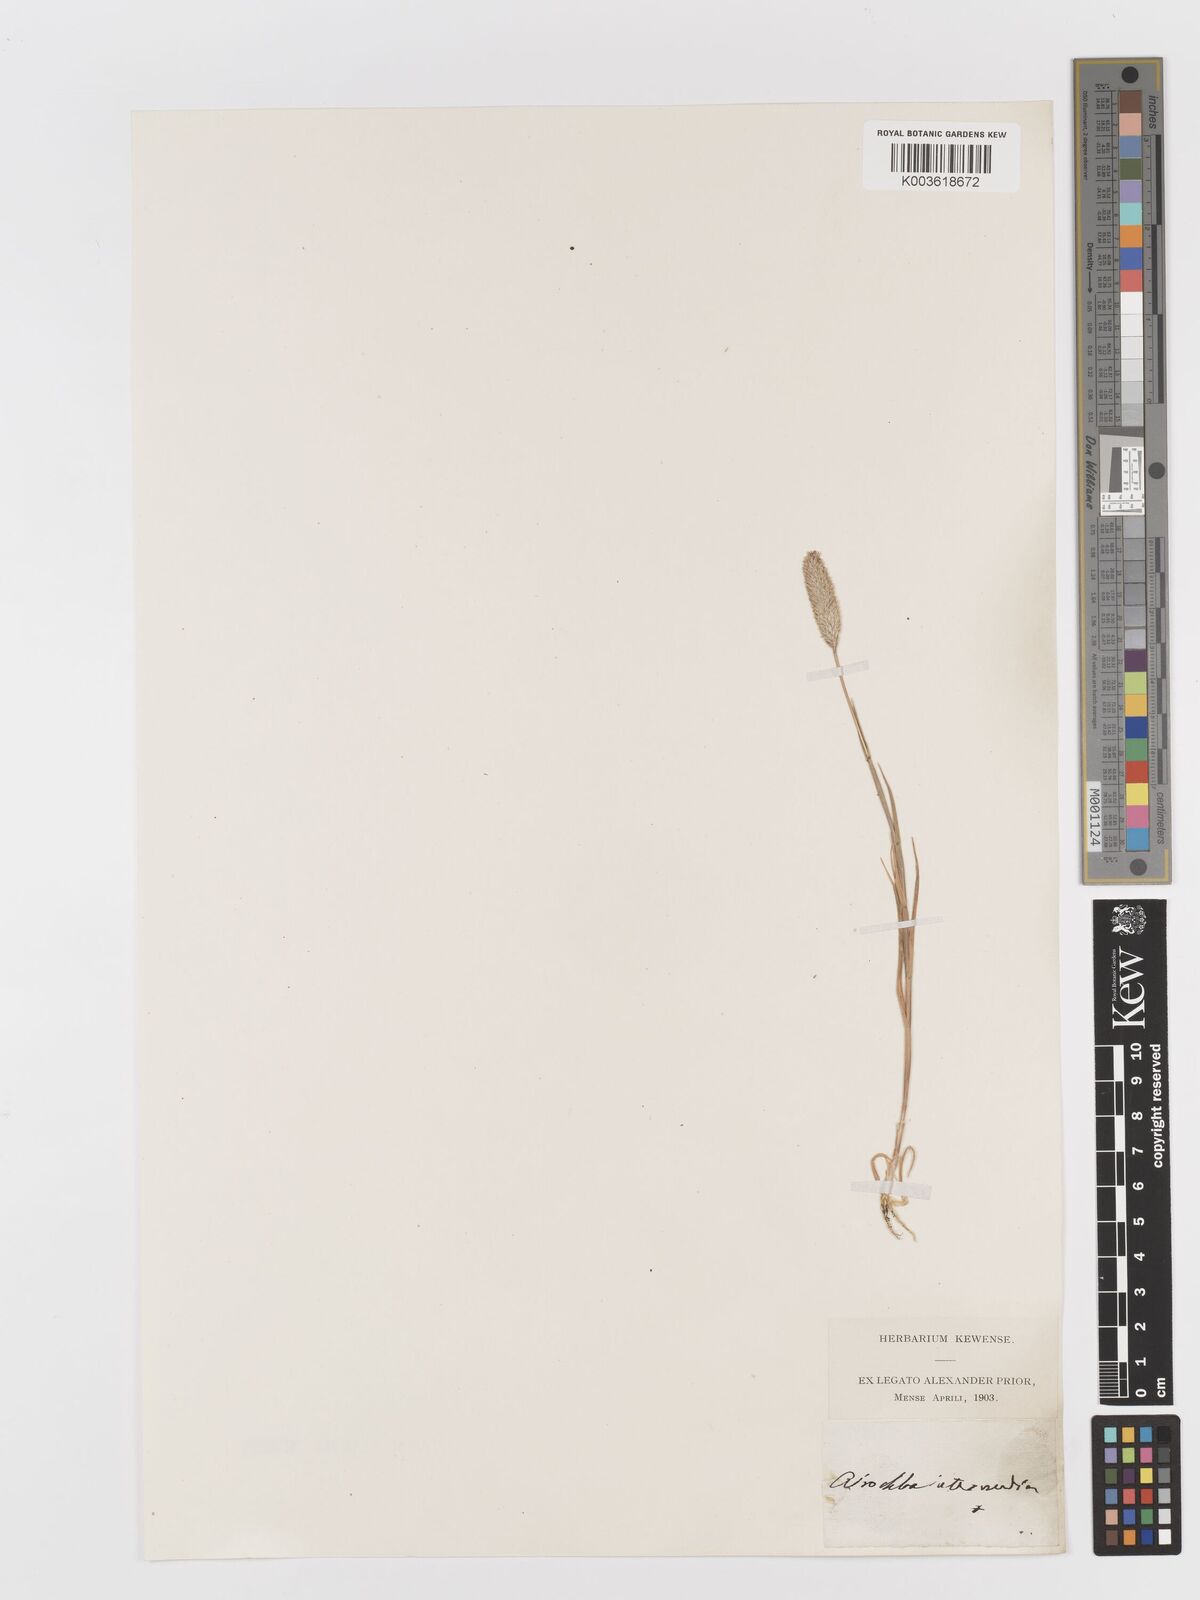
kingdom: Plantae
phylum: Tracheophyta
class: Liliopsida
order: Poales
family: Poaceae
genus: Rostraria
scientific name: Rostraria
